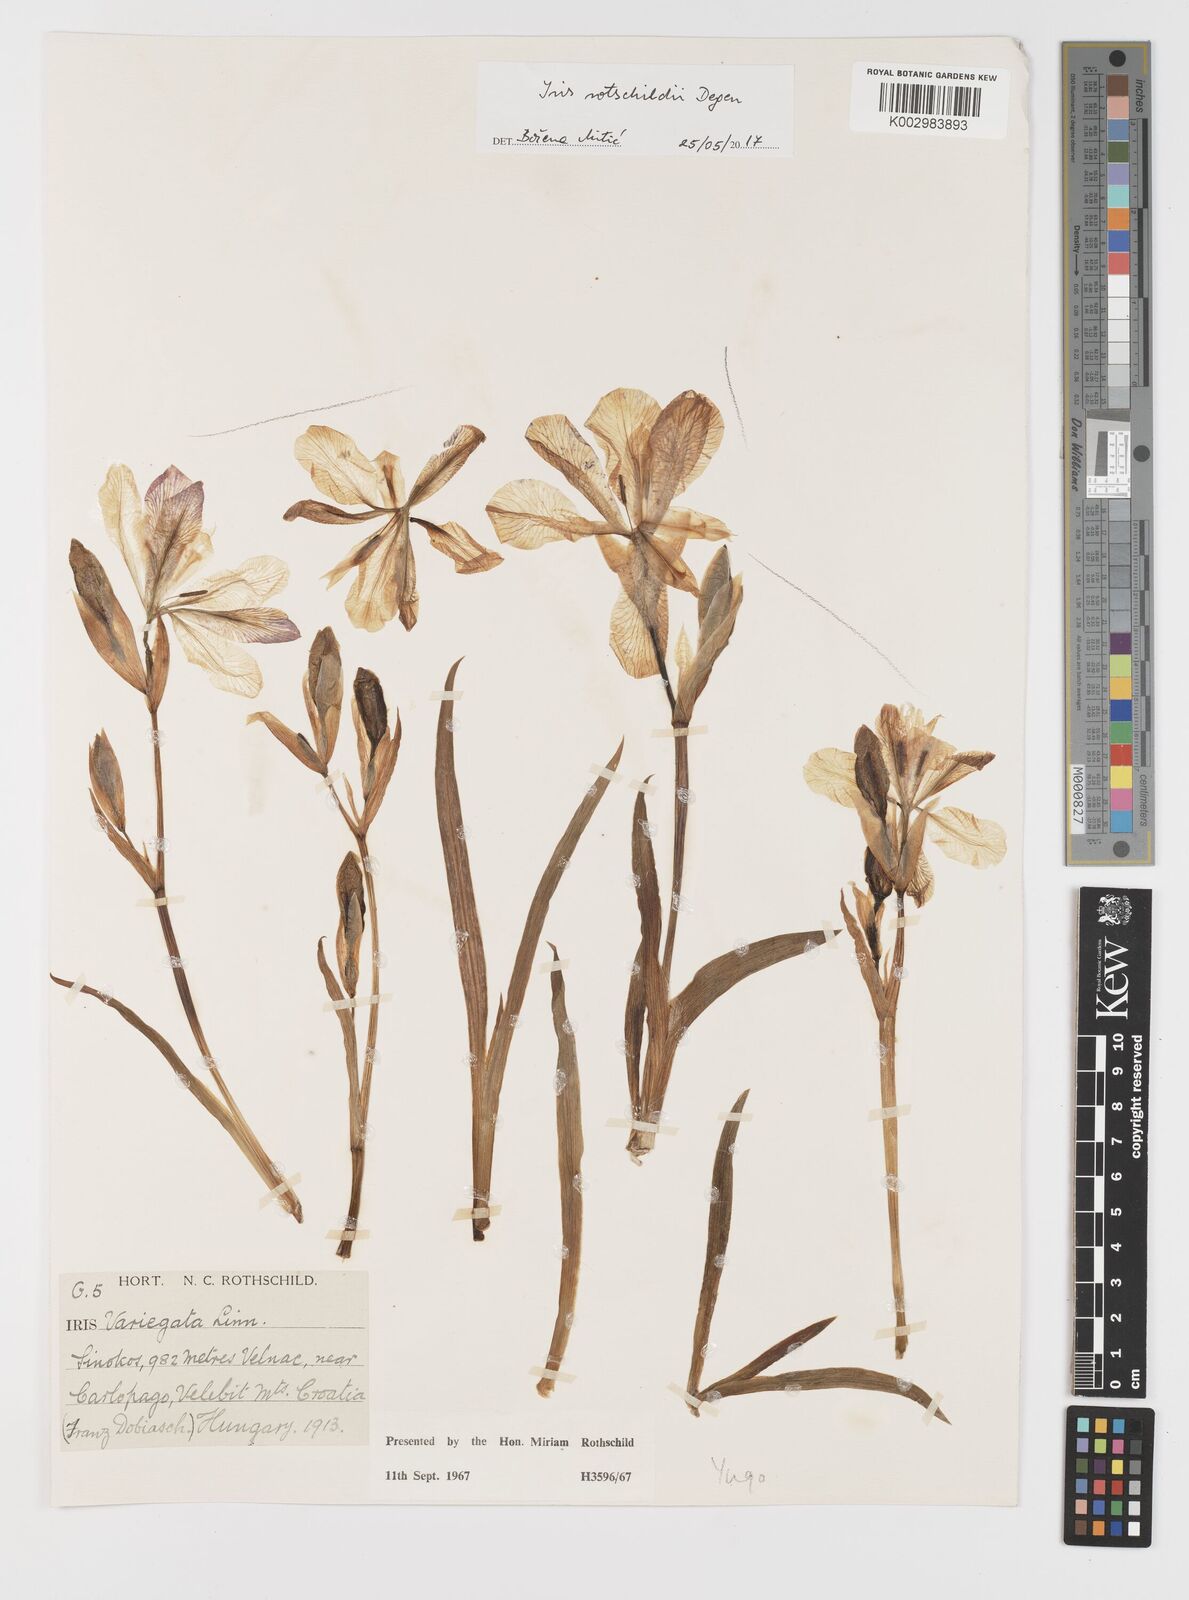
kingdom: Plantae
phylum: Tracheophyta
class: Liliopsida
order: Asparagales
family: Iridaceae
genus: Iris
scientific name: Iris germanica
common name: German iris
